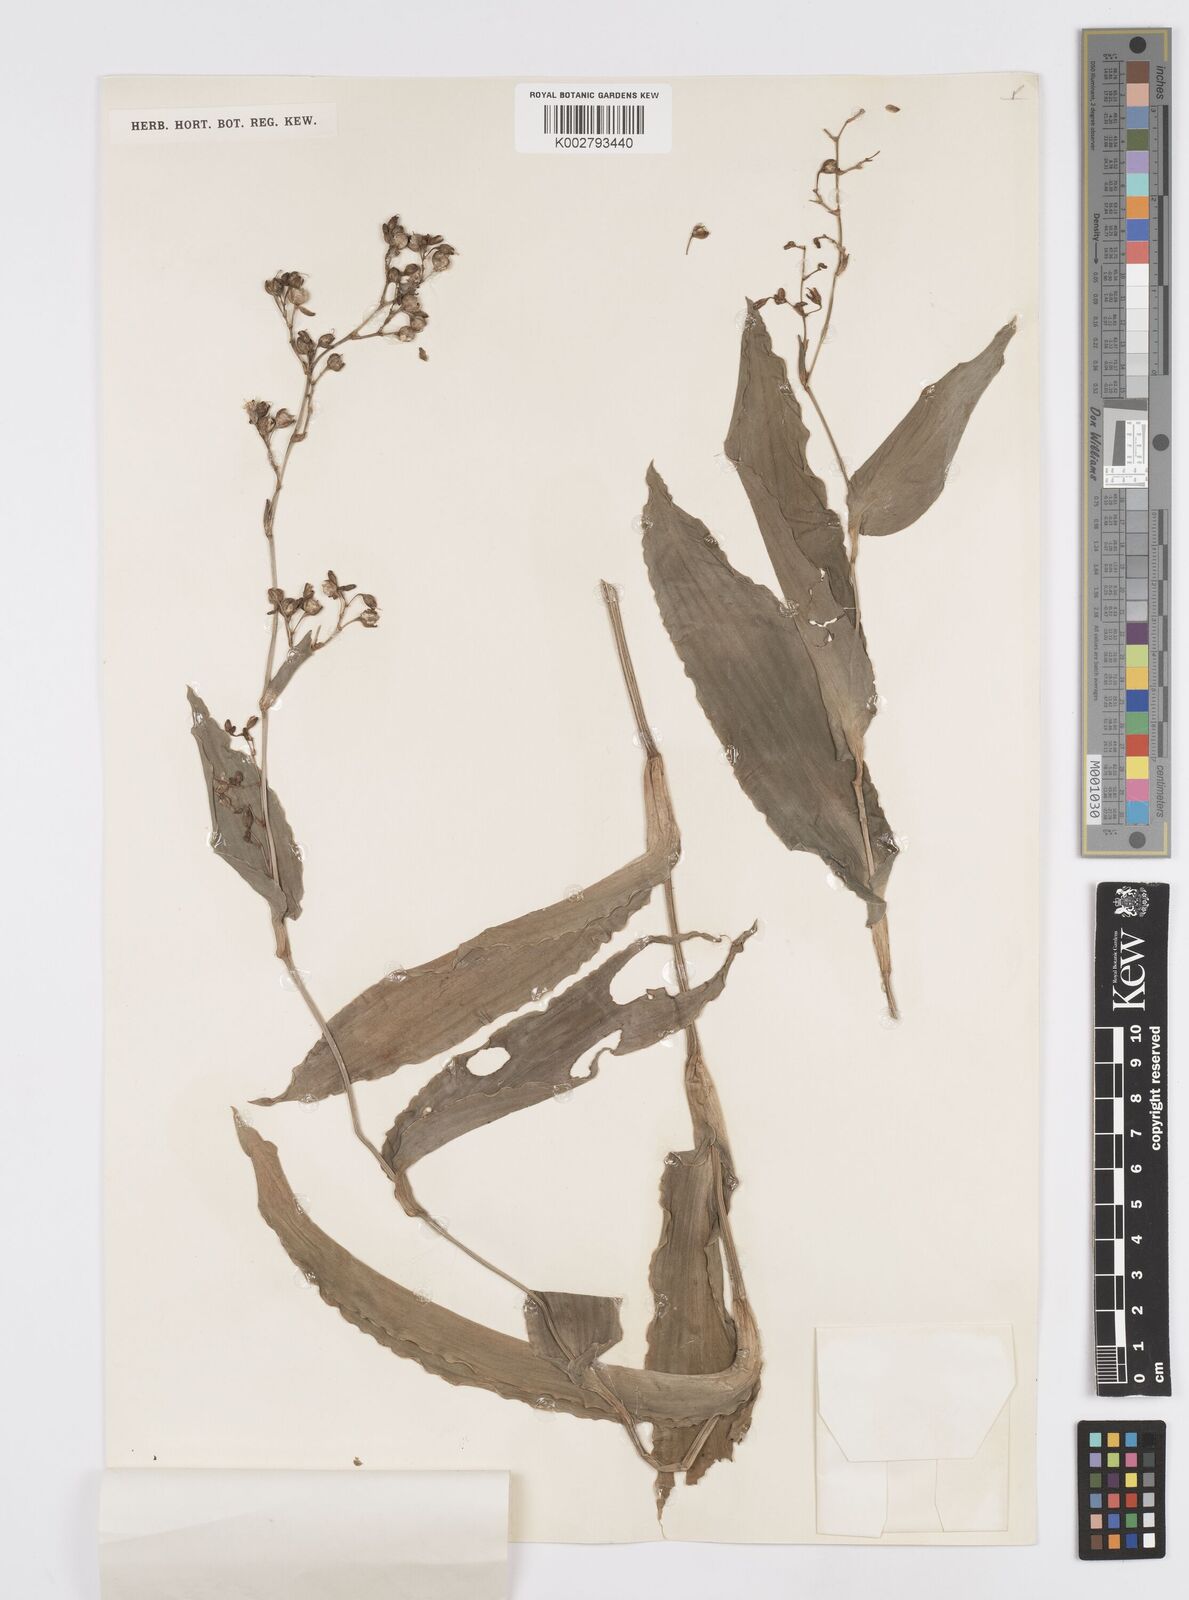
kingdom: Plantae
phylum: Tracheophyta
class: Liliopsida
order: Commelinales
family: Commelinaceae
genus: Murdannia
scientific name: Murdannia
